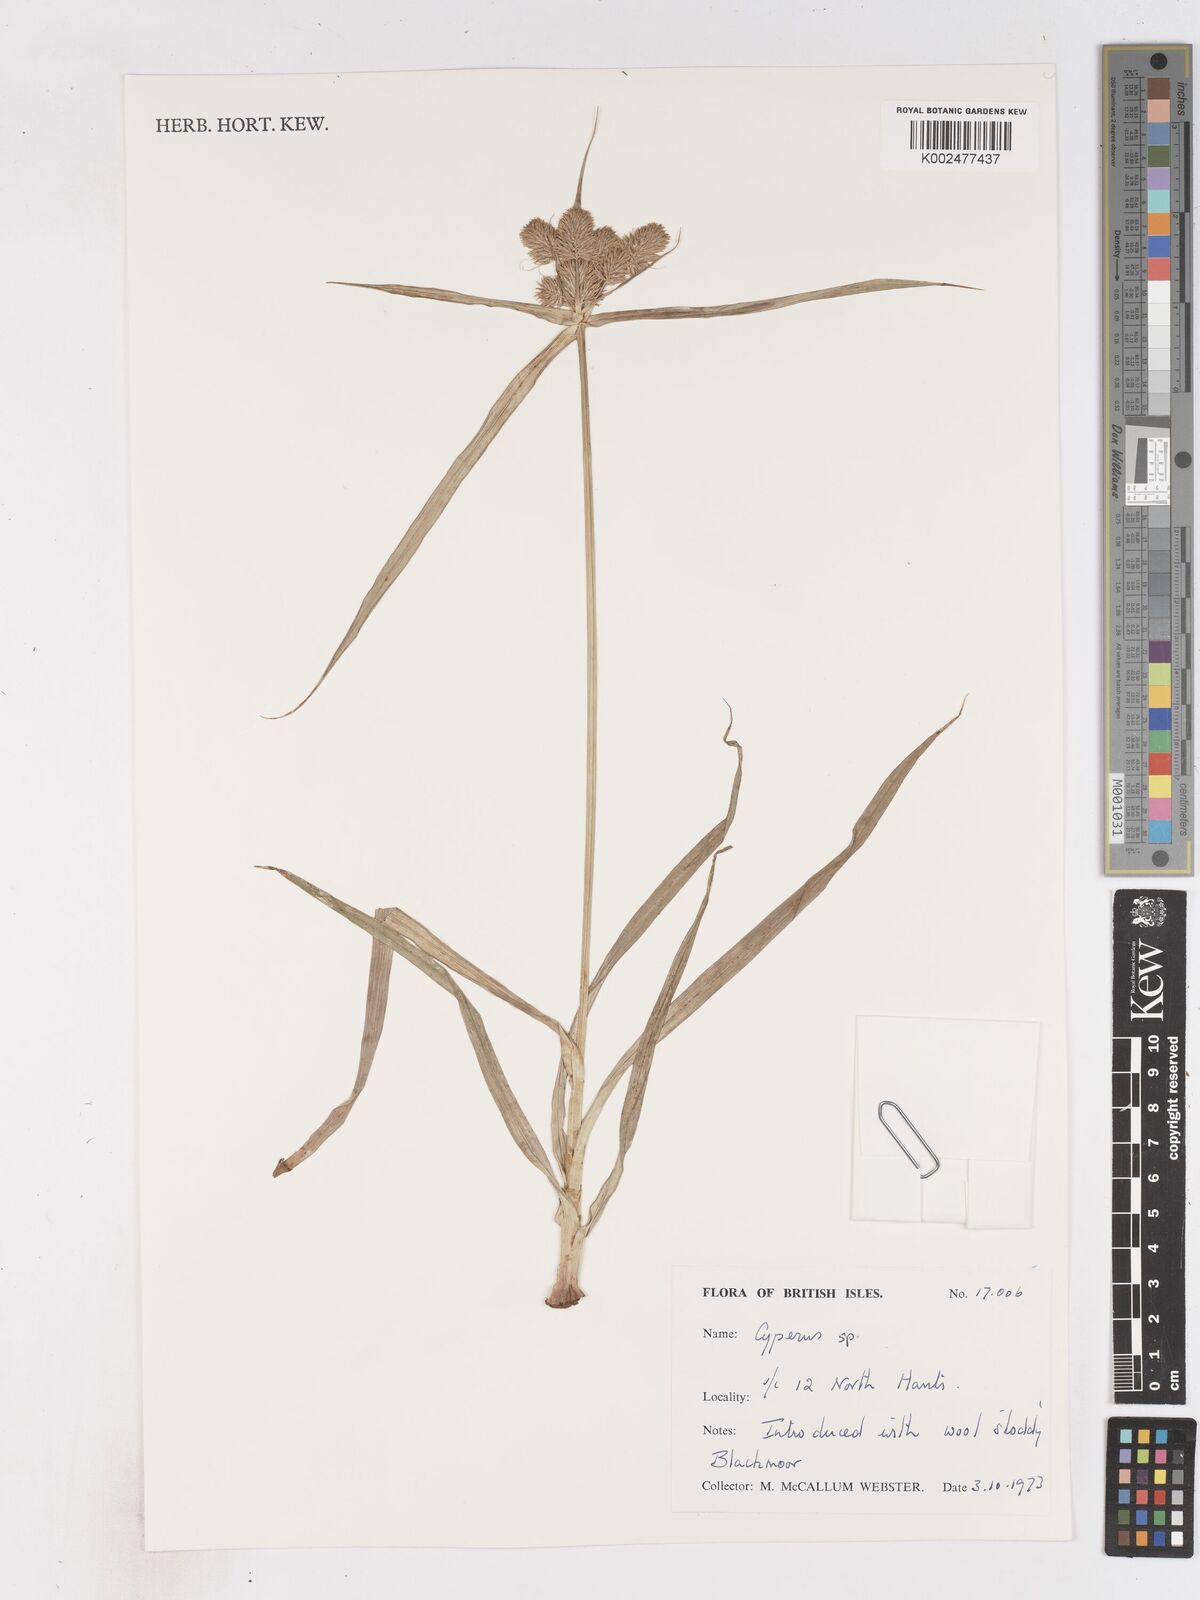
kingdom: Plantae
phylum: Tracheophyta
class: Liliopsida
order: Poales
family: Cyperaceae
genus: Cyperus
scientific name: Cyperus
